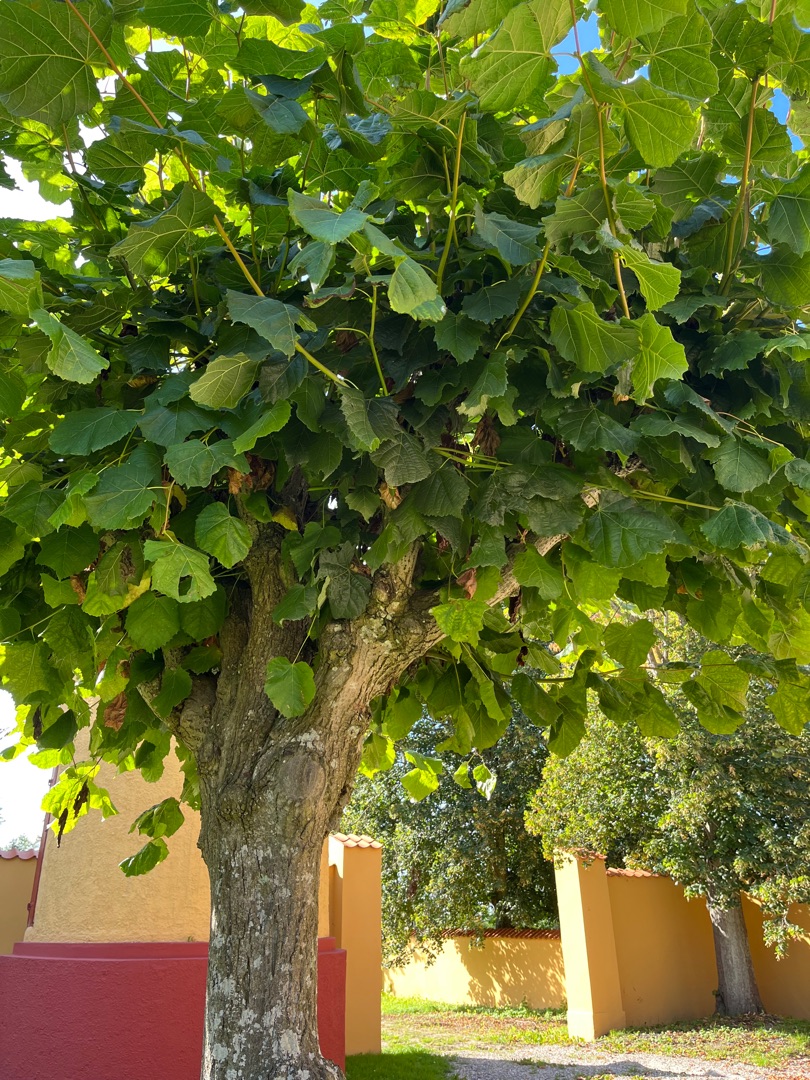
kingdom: Plantae
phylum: Tracheophyta
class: Magnoliopsida
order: Malvales
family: Malvaceae
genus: Tilia
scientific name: Tilia
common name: Lindeslægten
